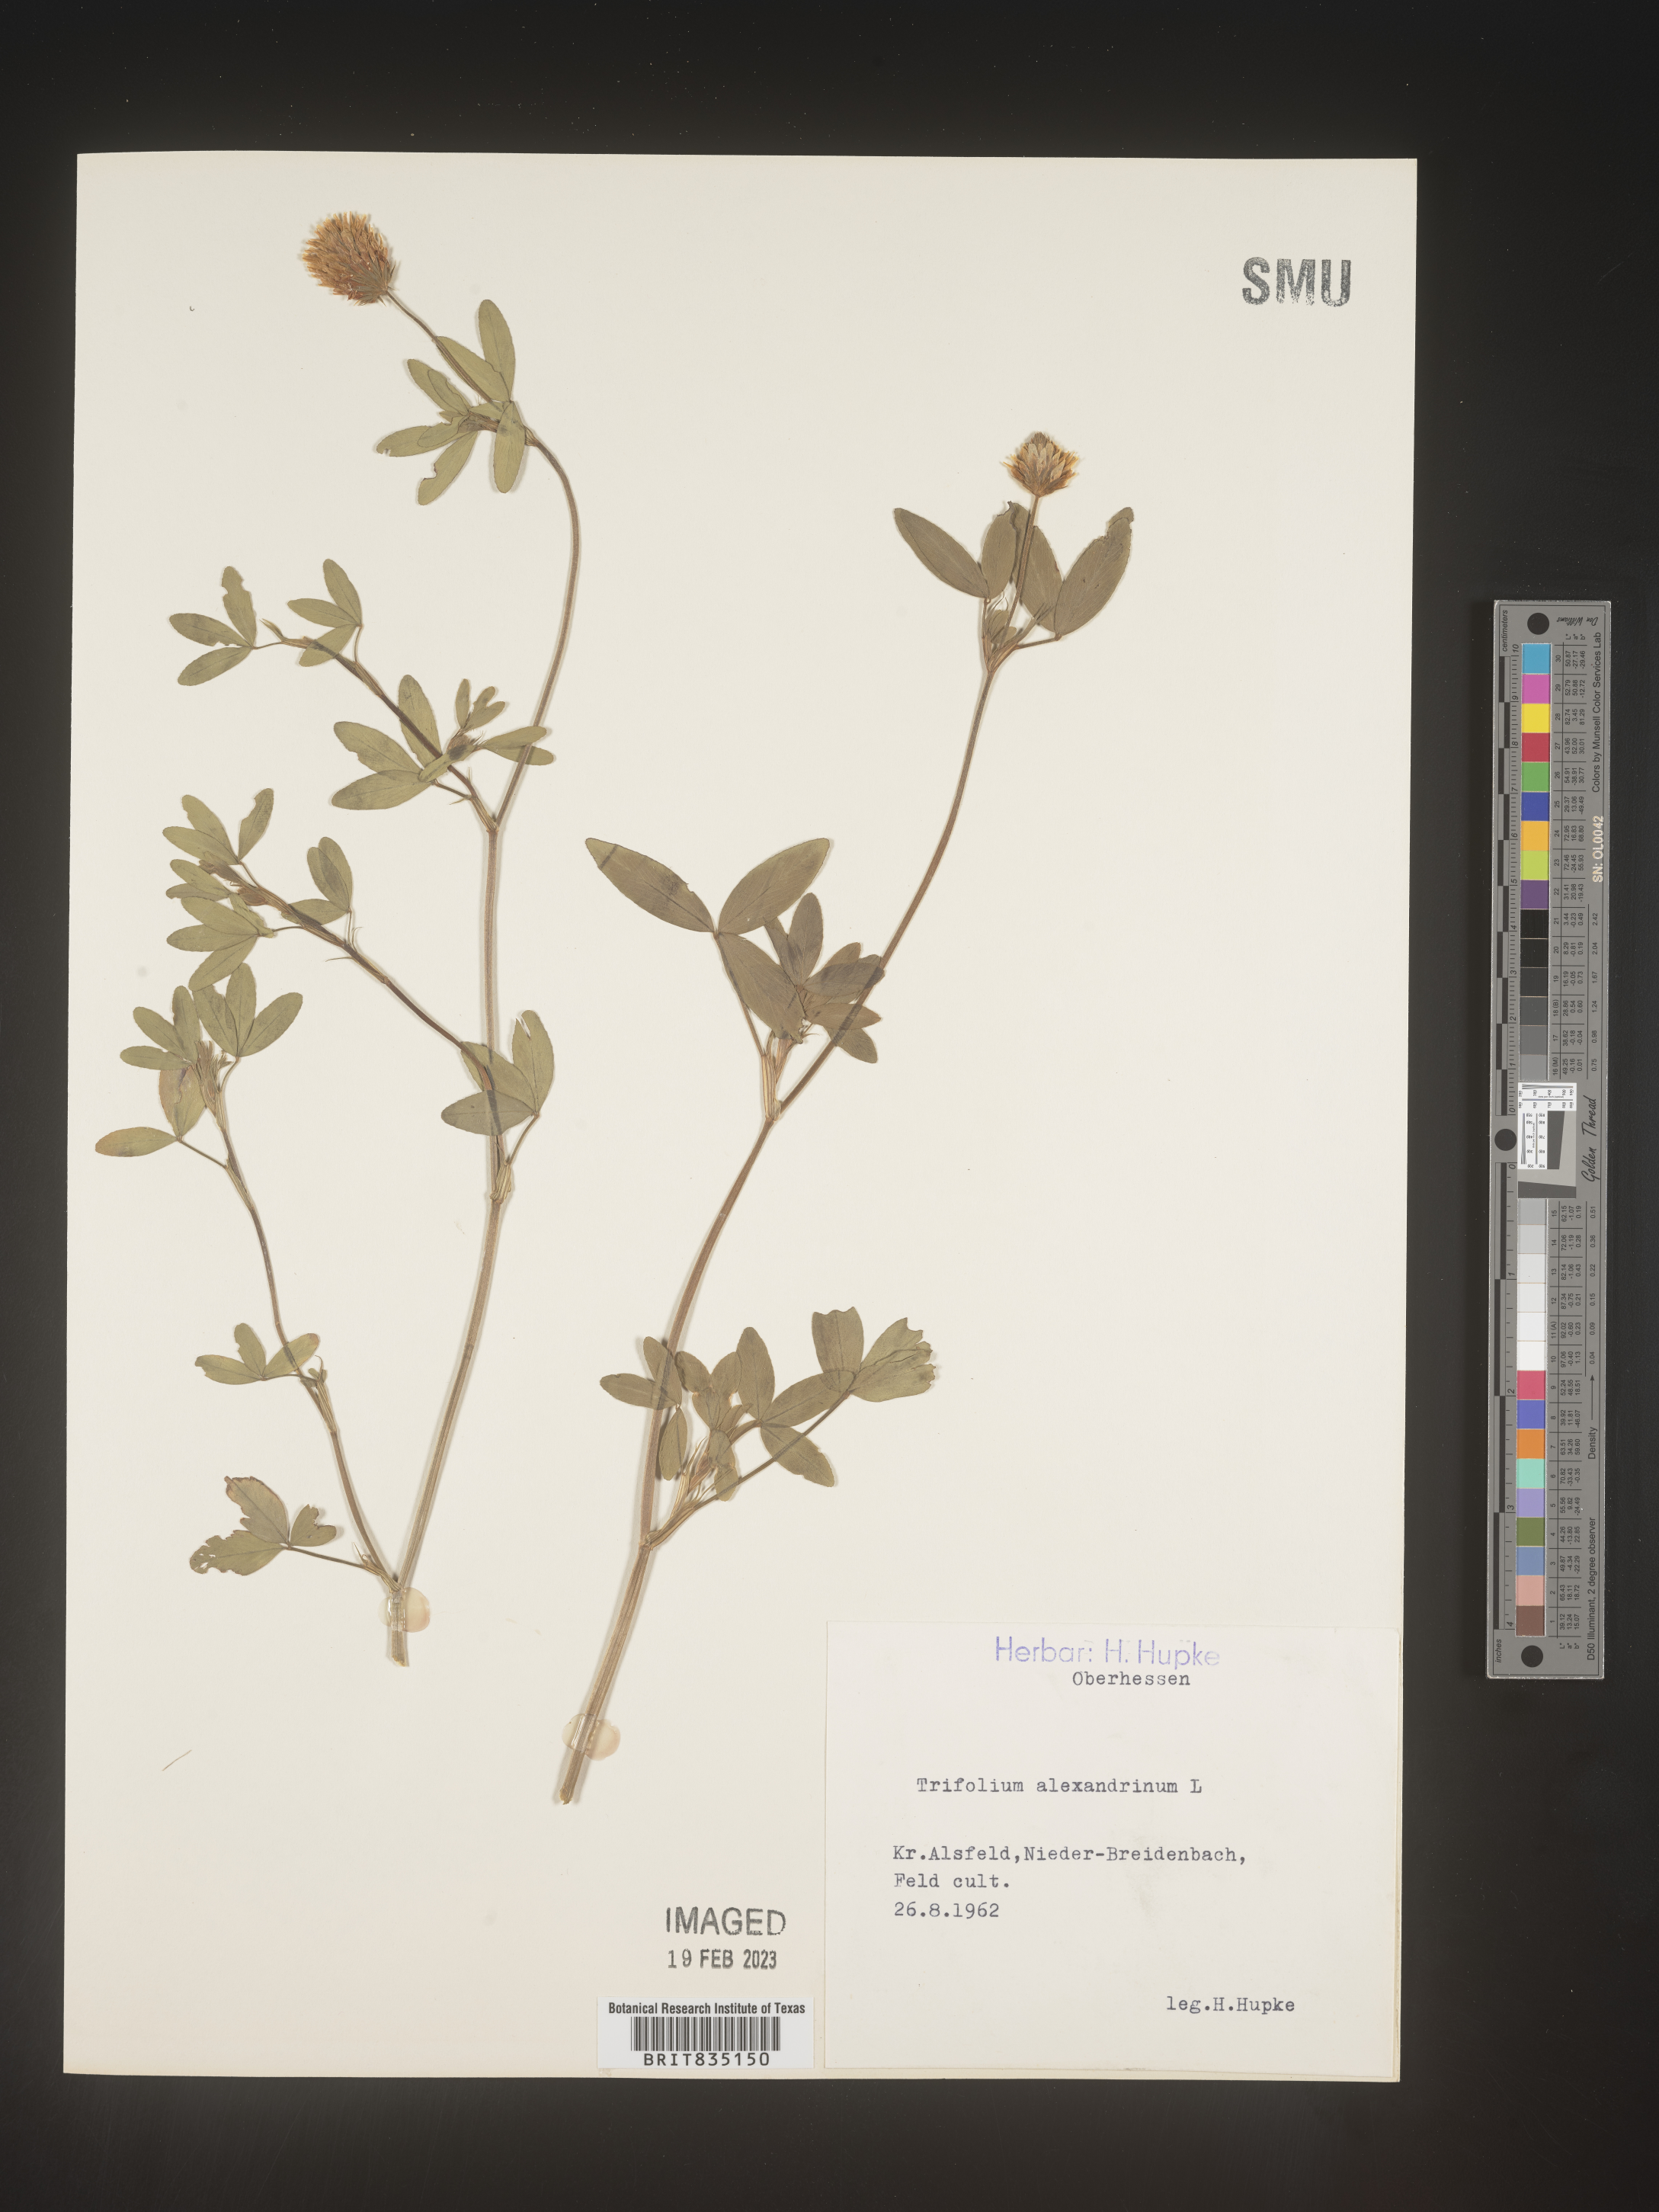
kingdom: Plantae
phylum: Tracheophyta
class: Magnoliopsida
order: Fabales
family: Fabaceae
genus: Trigonella
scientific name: Trigonella
